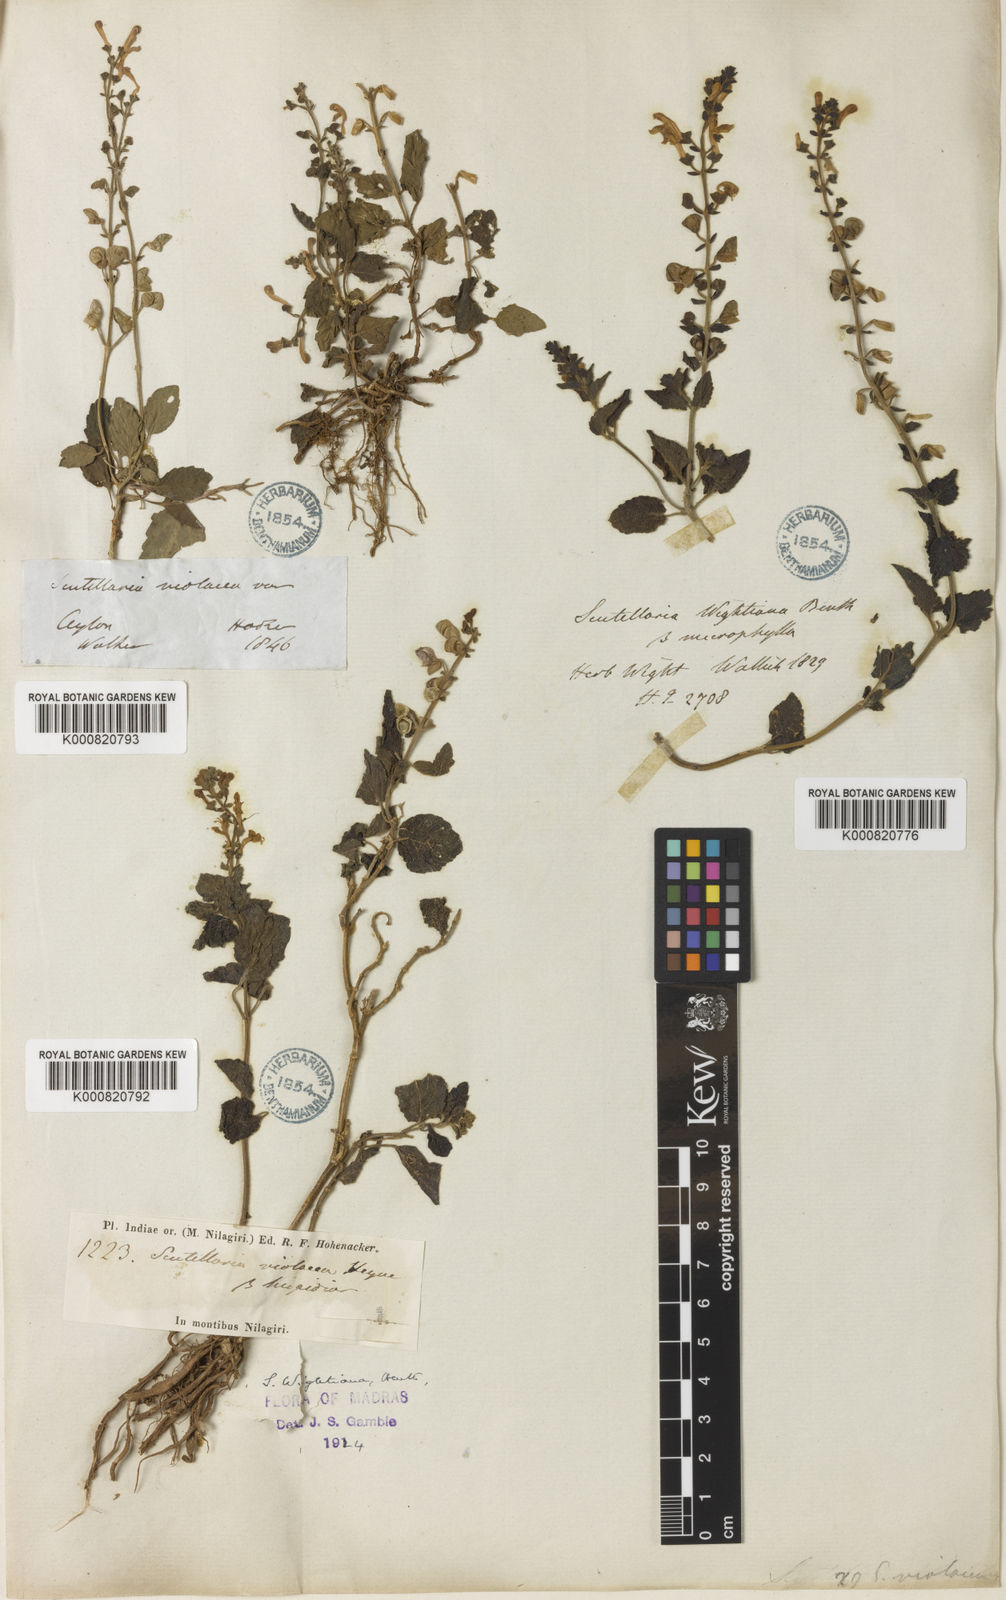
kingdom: Plantae
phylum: Tracheophyta
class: Magnoliopsida
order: Lamiales
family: Lamiaceae
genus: Scutellaria
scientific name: Scutellaria violacea
